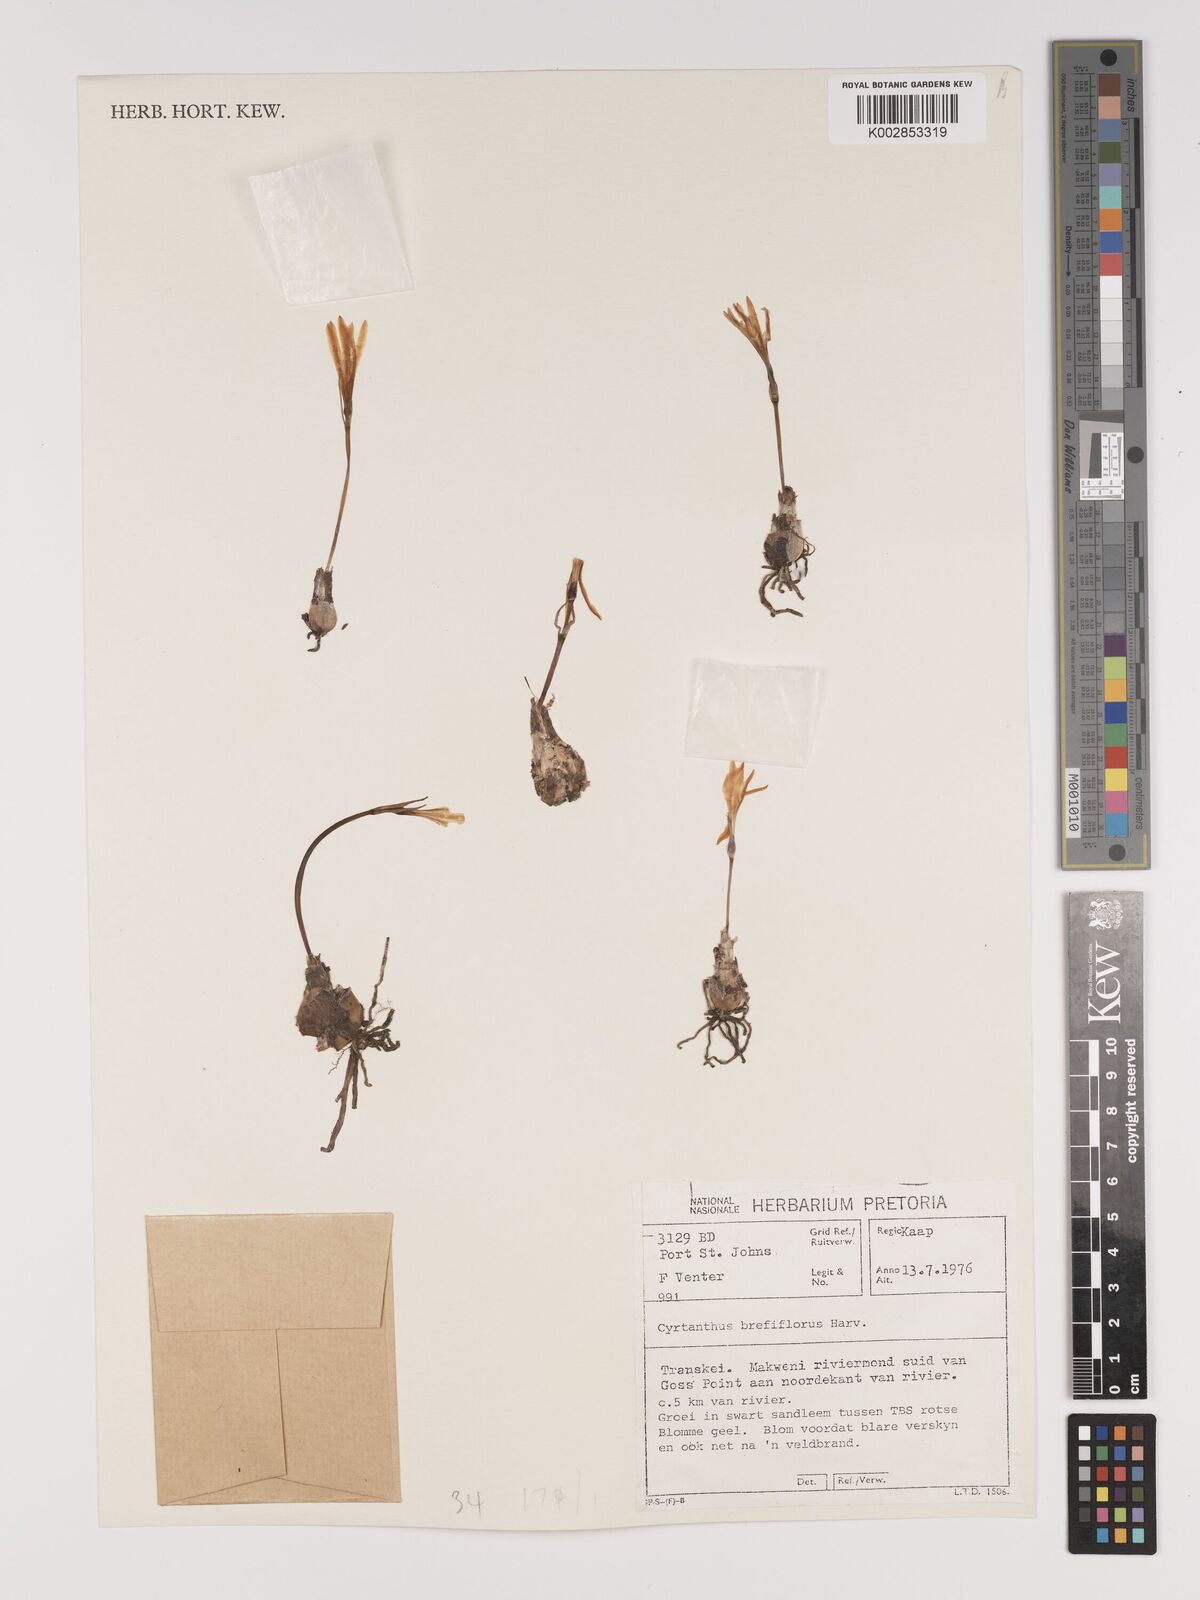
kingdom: Plantae
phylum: Tracheophyta
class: Liliopsida
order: Asparagales
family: Amaryllidaceae
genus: Cyrtanthus
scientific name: Cyrtanthus breviflorus
